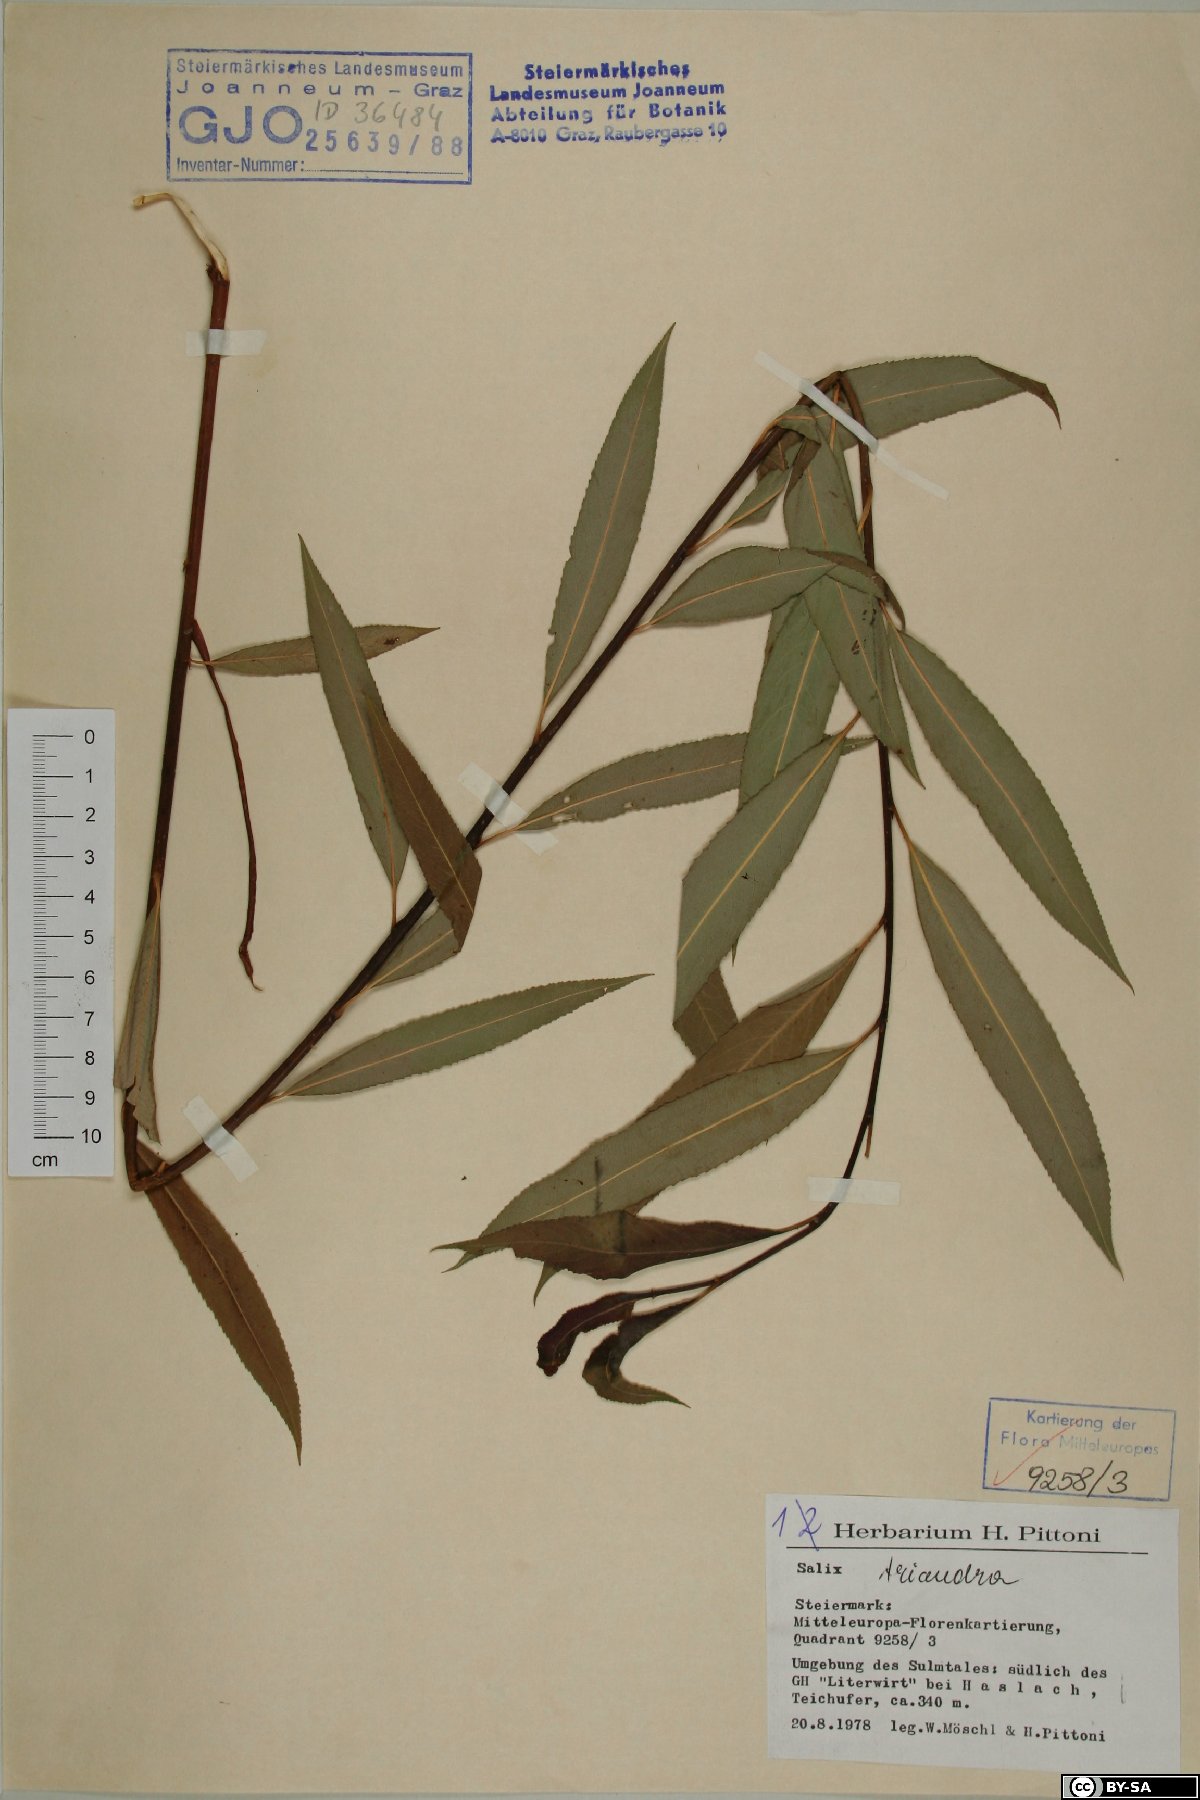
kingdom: Plantae
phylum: Tracheophyta
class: Magnoliopsida
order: Malpighiales
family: Salicaceae
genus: Salix
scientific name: Salix triandra
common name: Almond willow
